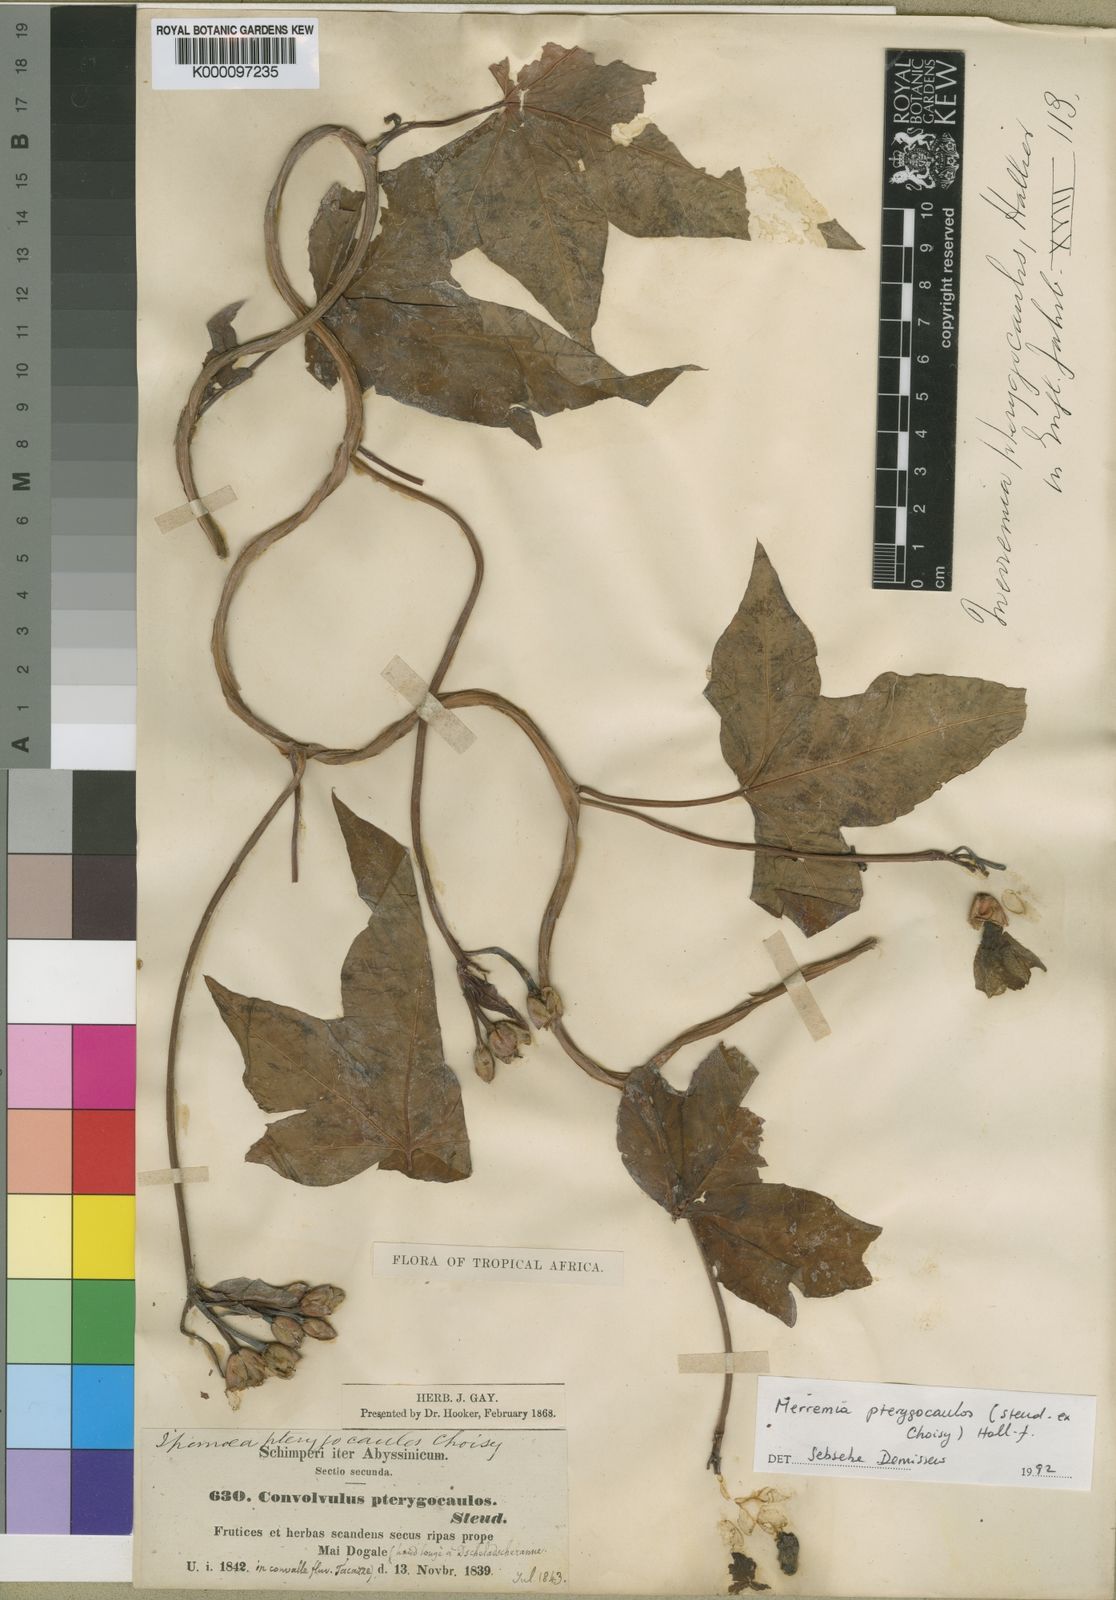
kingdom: Plantae
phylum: Tracheophyta
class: Magnoliopsida
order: Solanales
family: Convolvulaceae
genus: Merremia
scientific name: Merremia pterygocaulos
